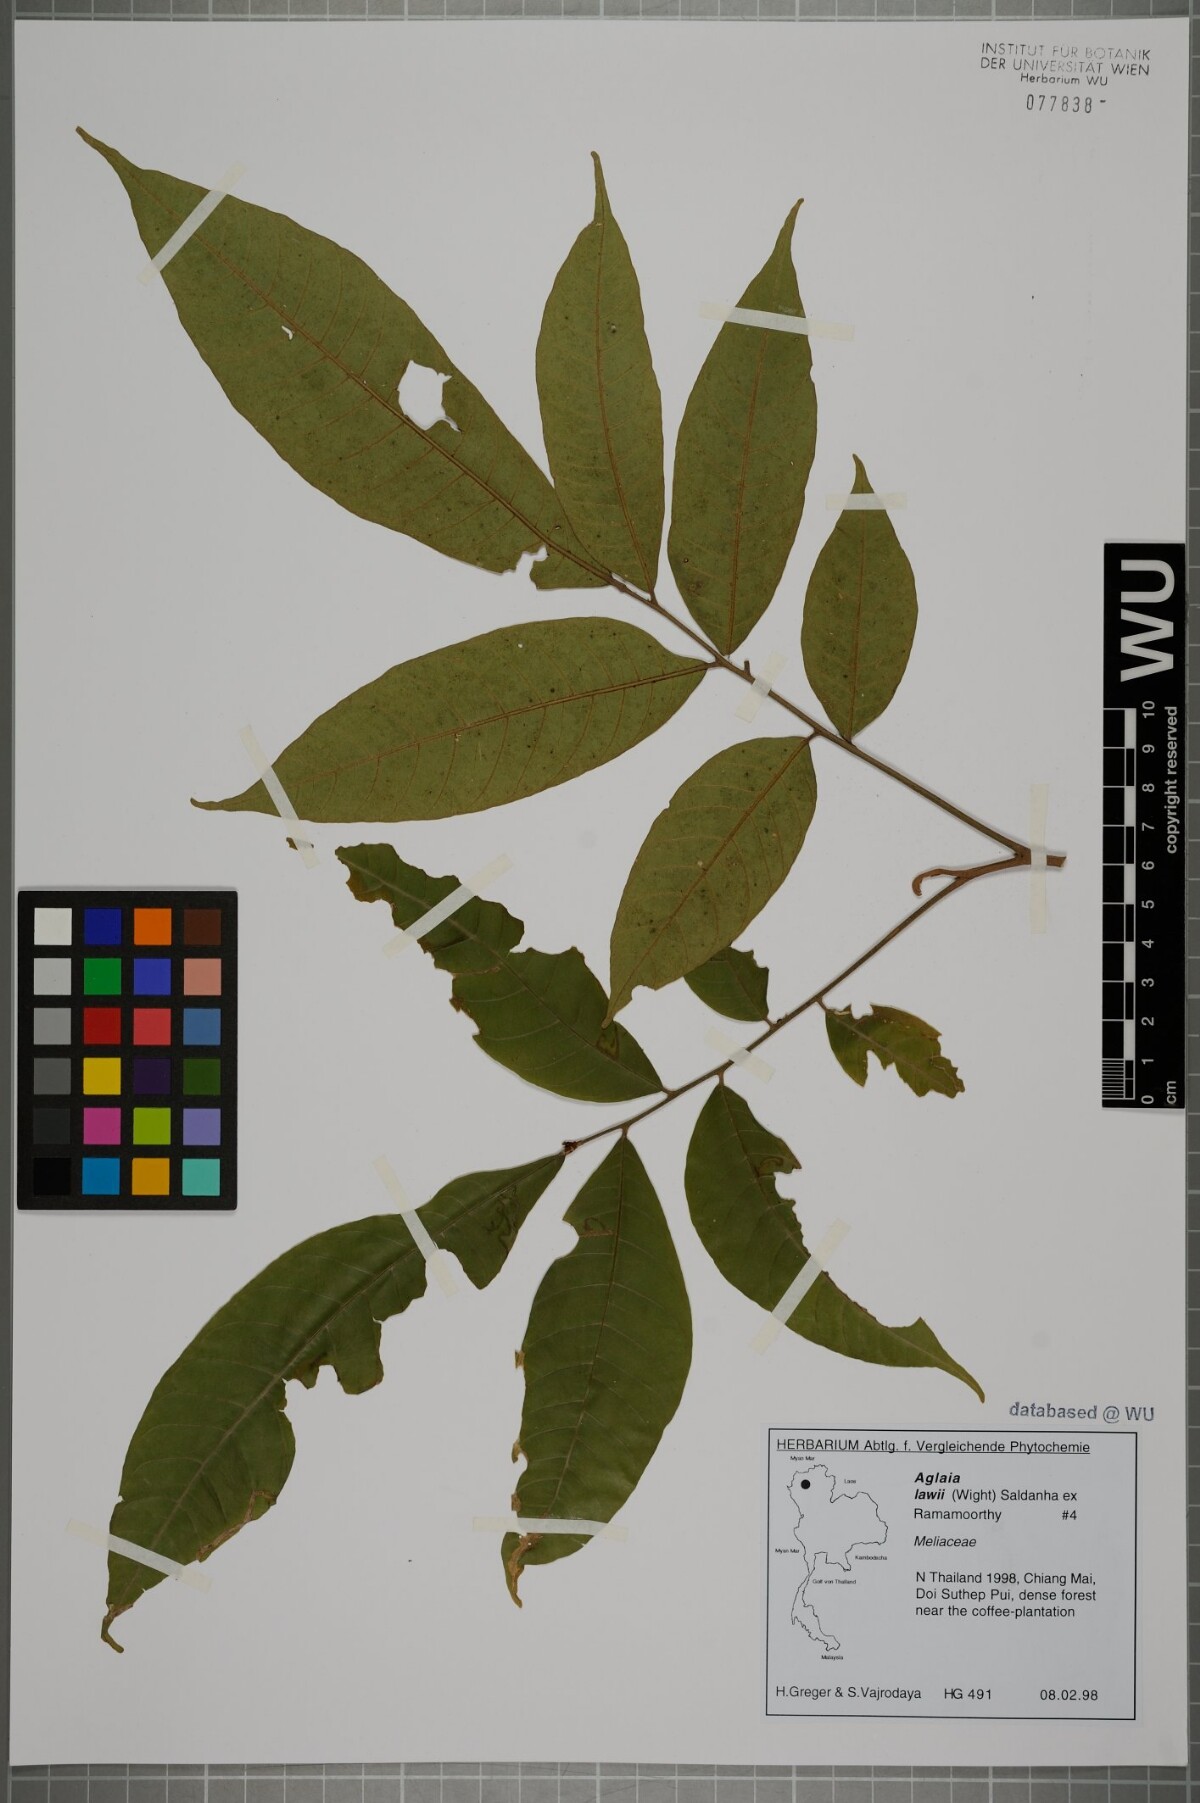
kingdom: Plantae
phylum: Tracheophyta
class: Magnoliopsida
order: Sapindales
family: Meliaceae
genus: Aglaia
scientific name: Aglaia lawii
